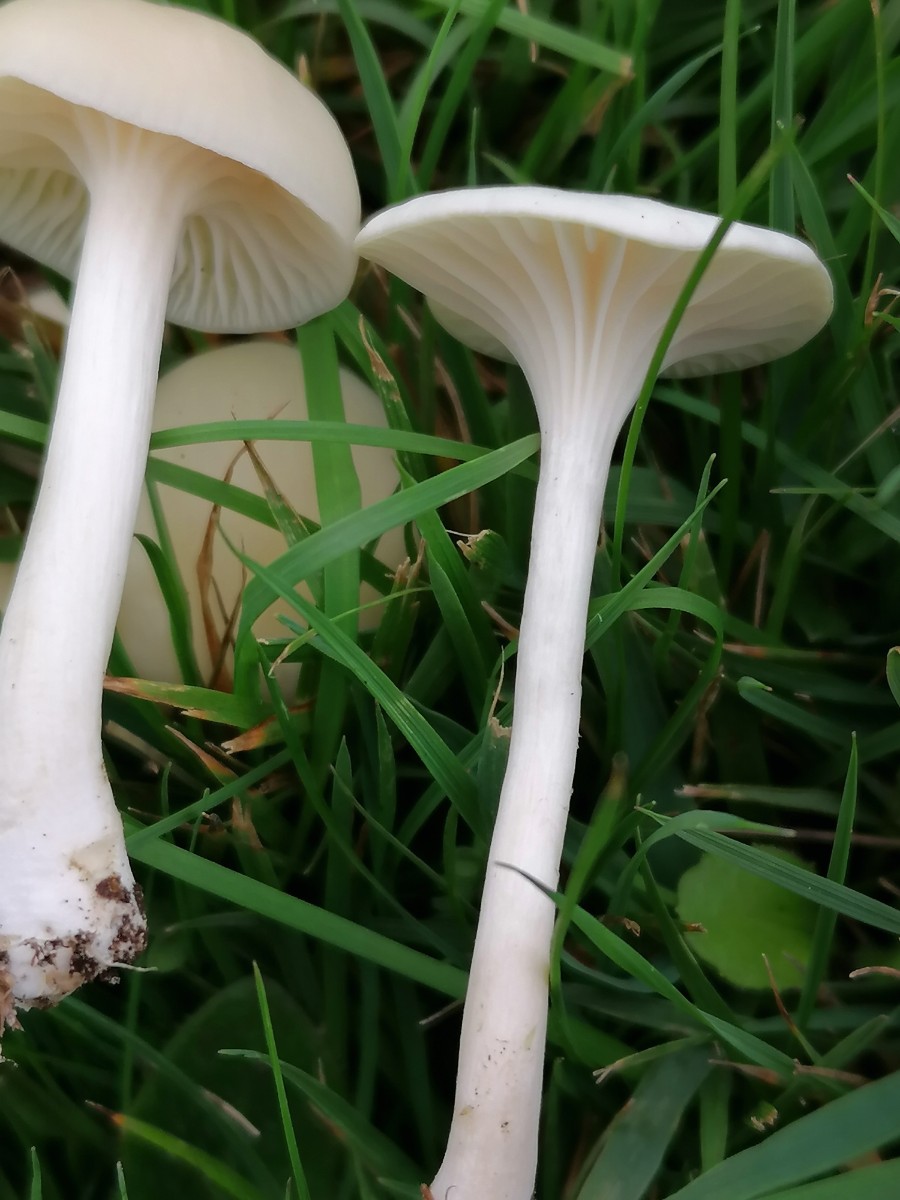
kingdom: Fungi
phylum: Basidiomycota
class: Agaricomycetes
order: Agaricales
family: Hygrophoraceae
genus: Cuphophyllus
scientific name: Cuphophyllus virgineus
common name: snehvid vokshat
